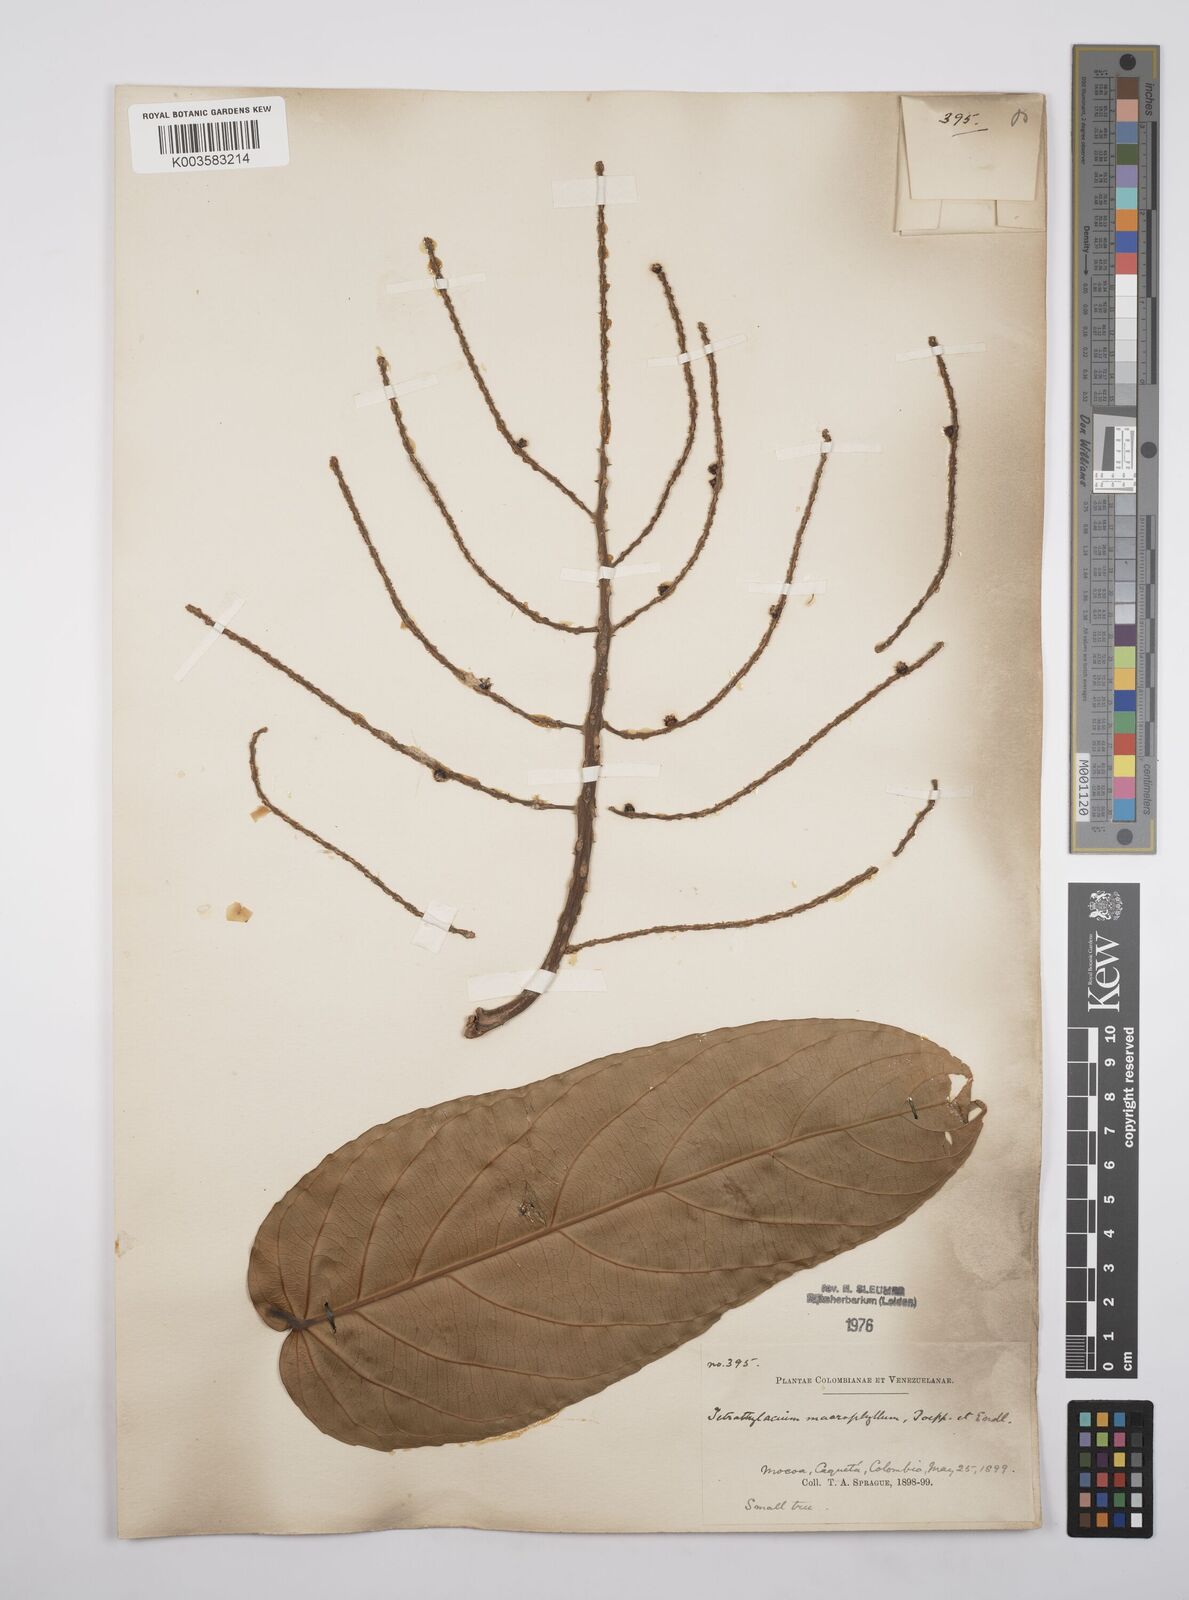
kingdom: Plantae
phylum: Tracheophyta
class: Magnoliopsida
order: Malpighiales
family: Salicaceae
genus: Tetrathylacium
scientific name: Tetrathylacium macrophyllum
